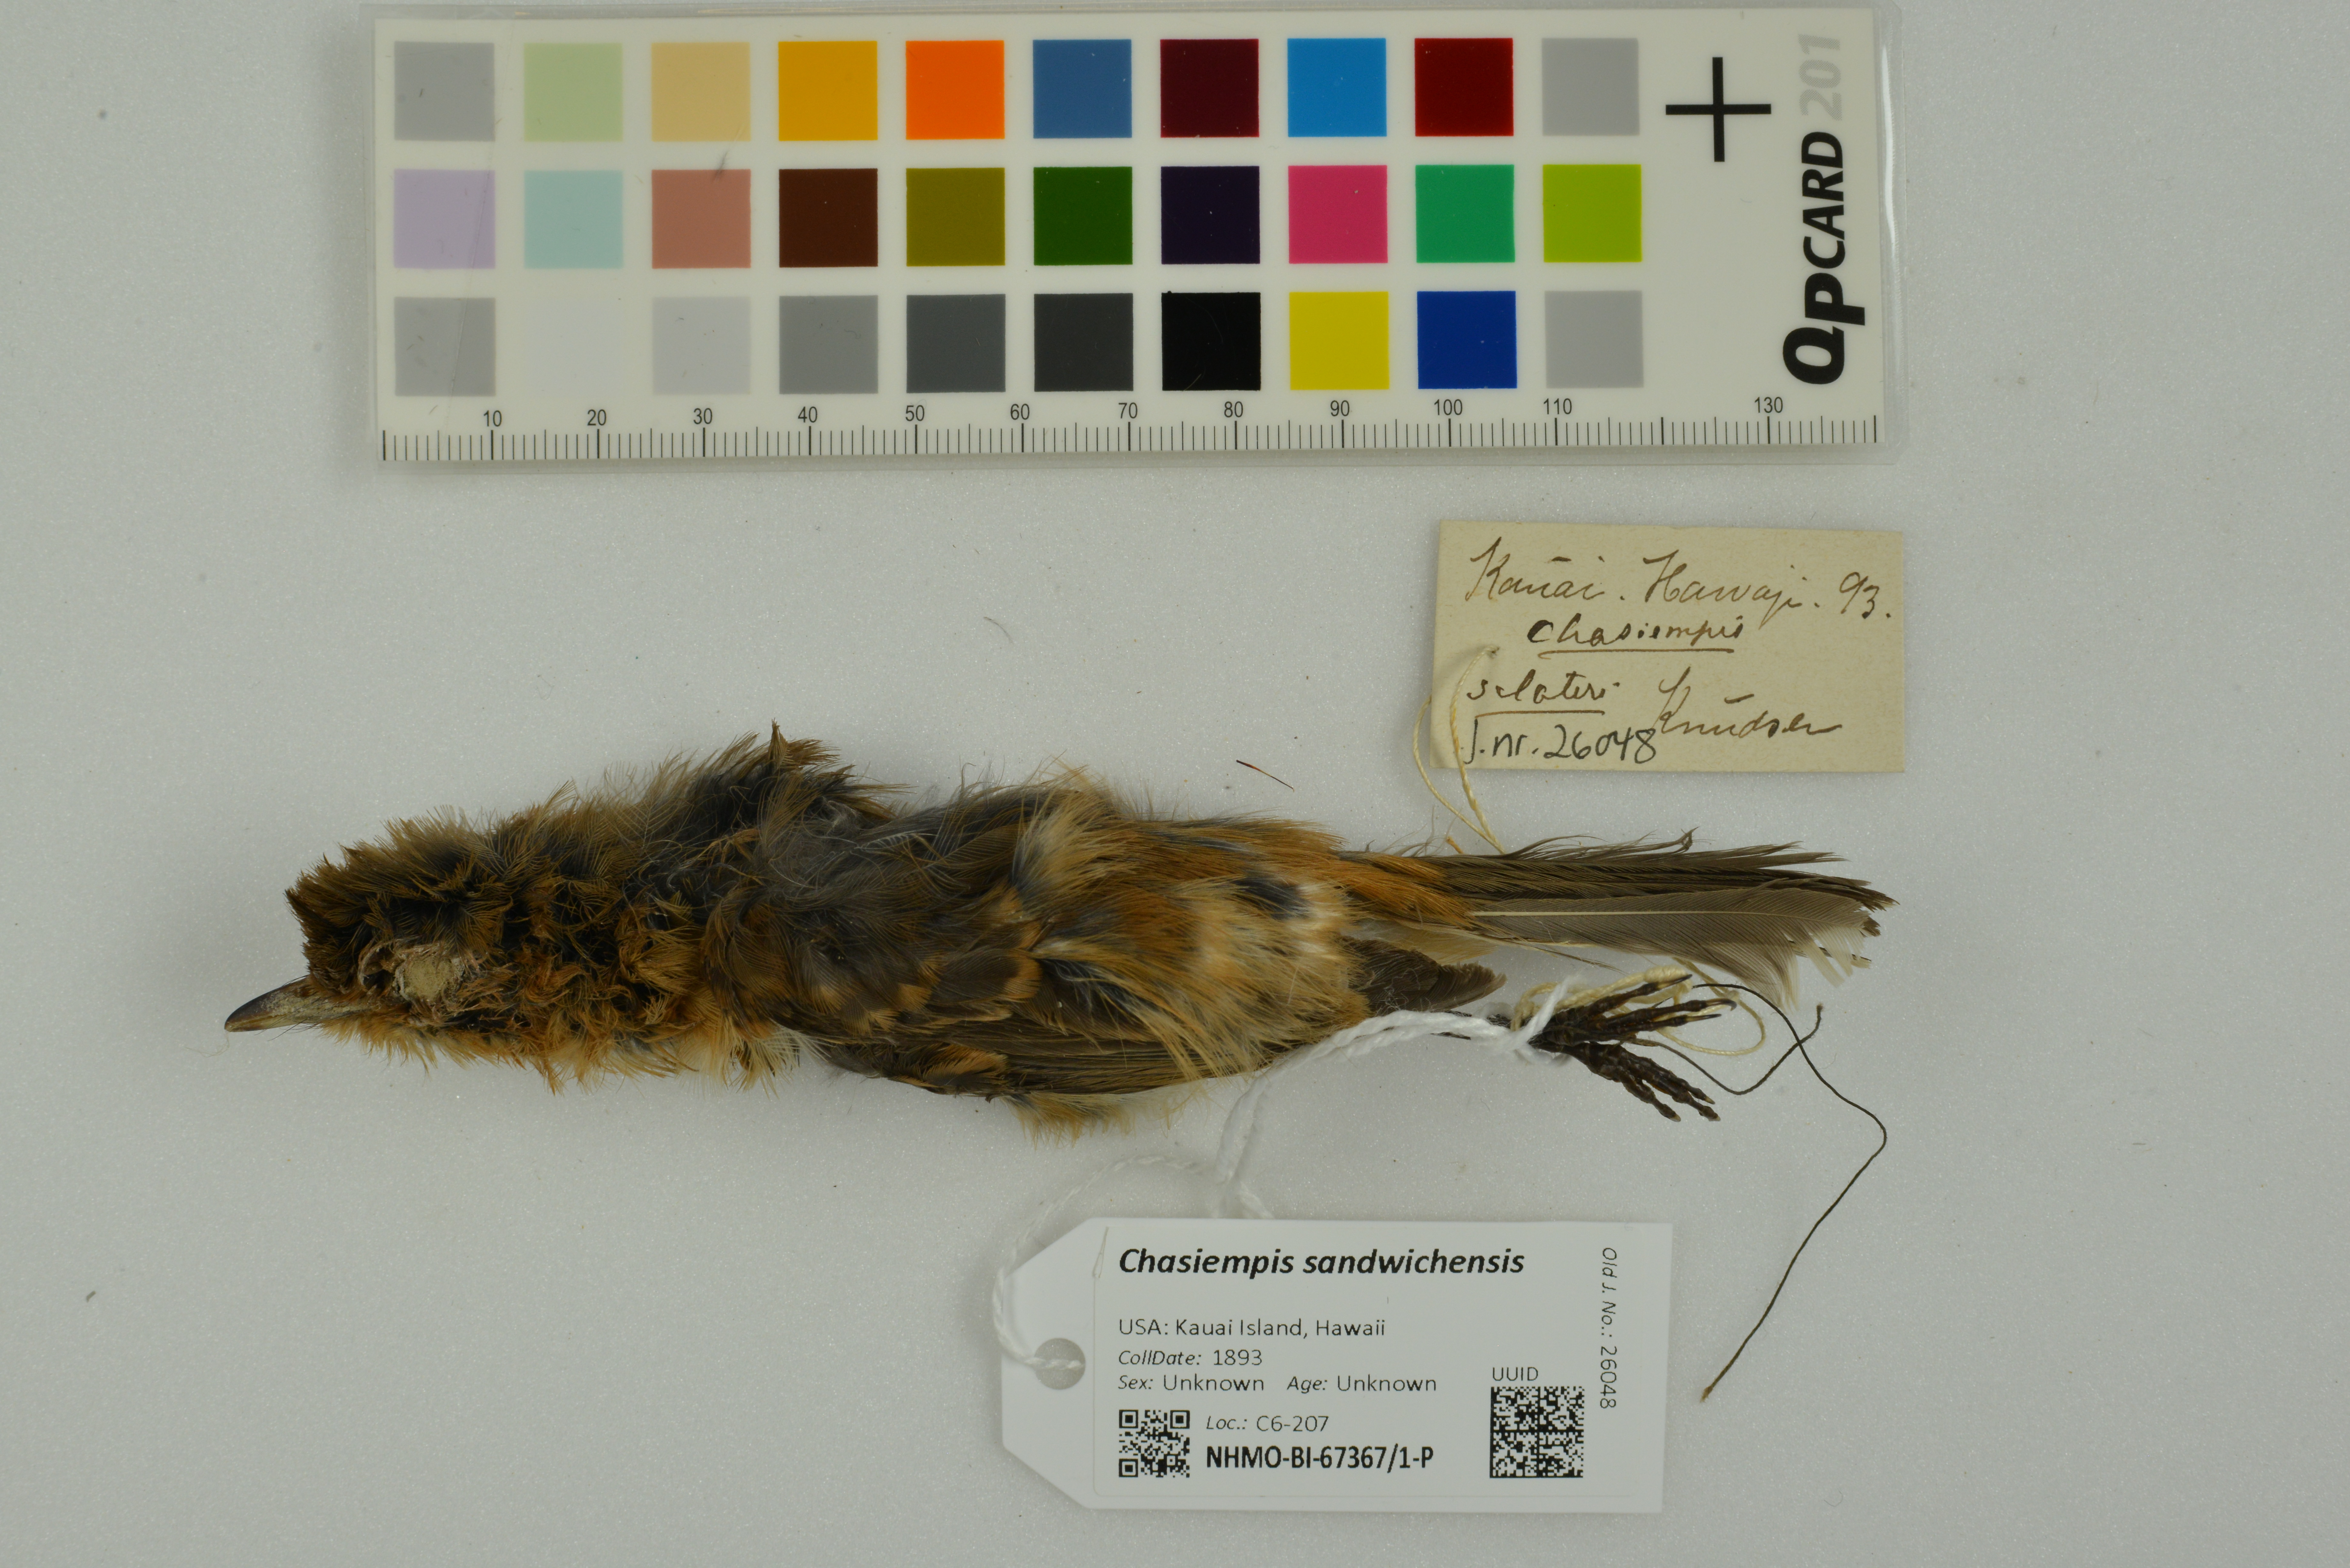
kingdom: Animalia
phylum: Chordata
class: Aves
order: Passeriformes
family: Monarchidae
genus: Chasiempis
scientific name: Chasiempis sandwichensis
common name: Hawaii elepaio
